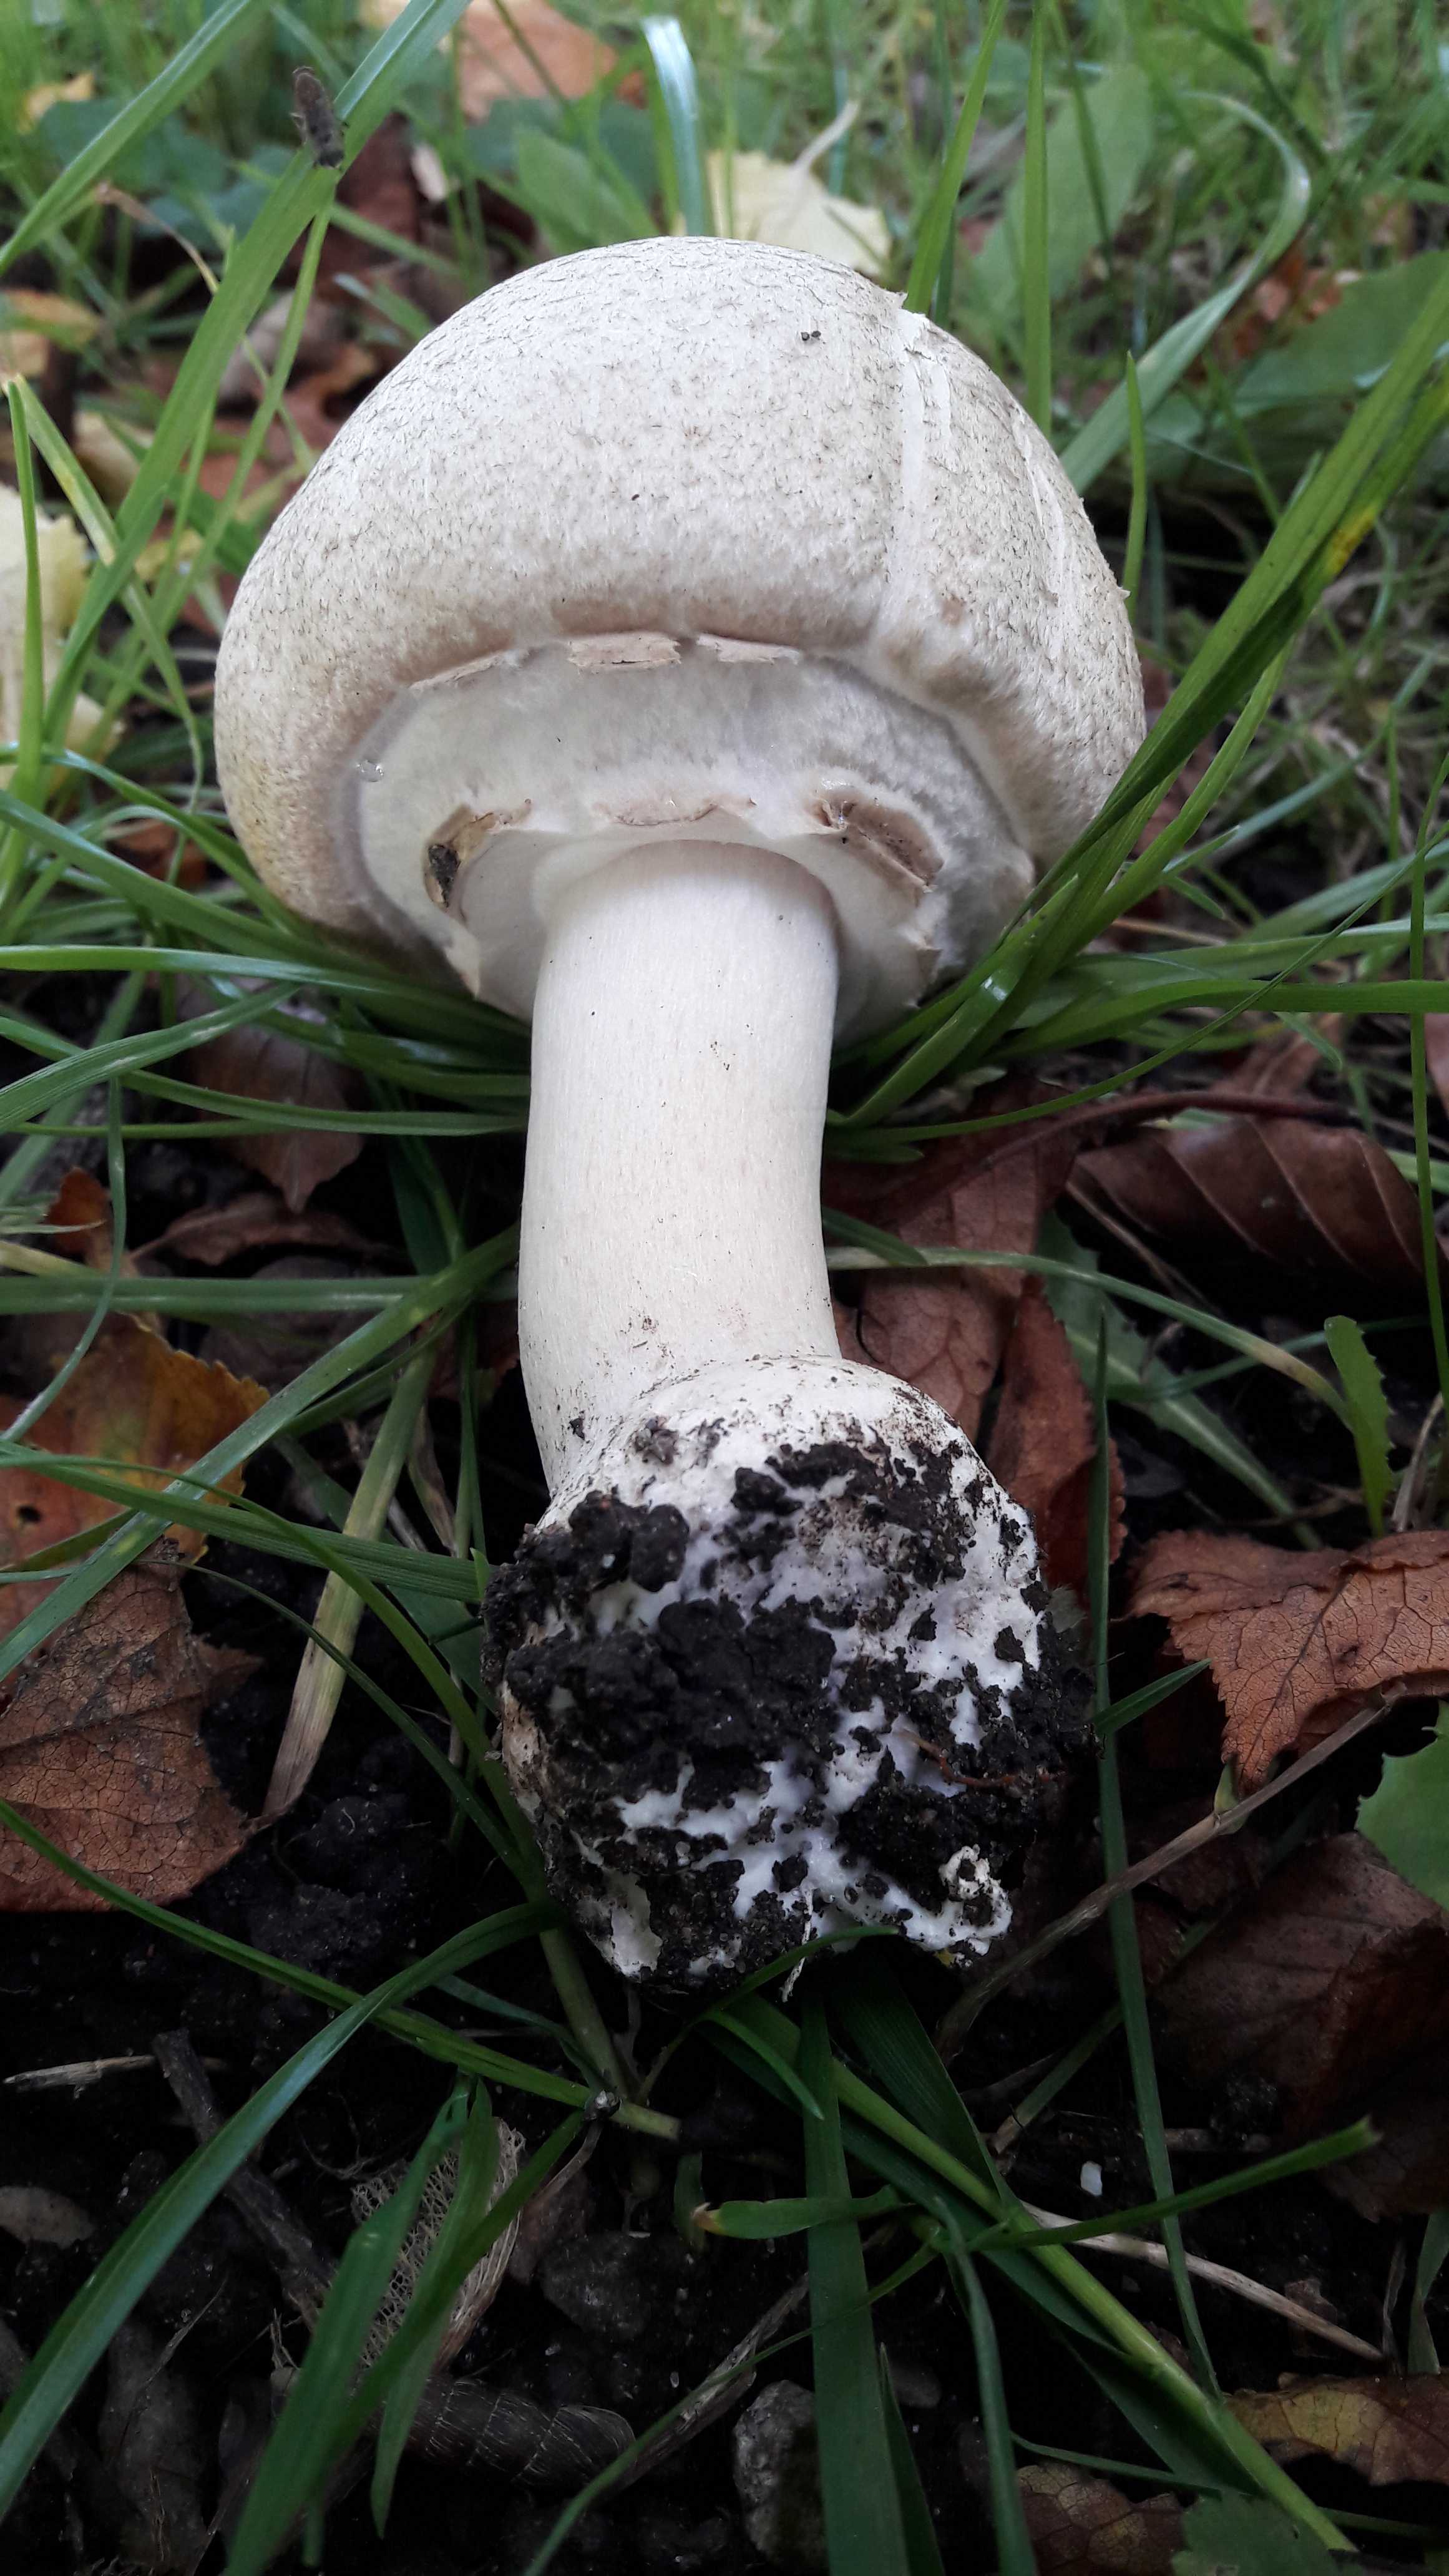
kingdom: Fungi
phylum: Basidiomycota
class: Agaricomycetes
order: Agaricales
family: Agaricaceae
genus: Agaricus
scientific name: Agaricus moelleri
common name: perlehøne-champignon
